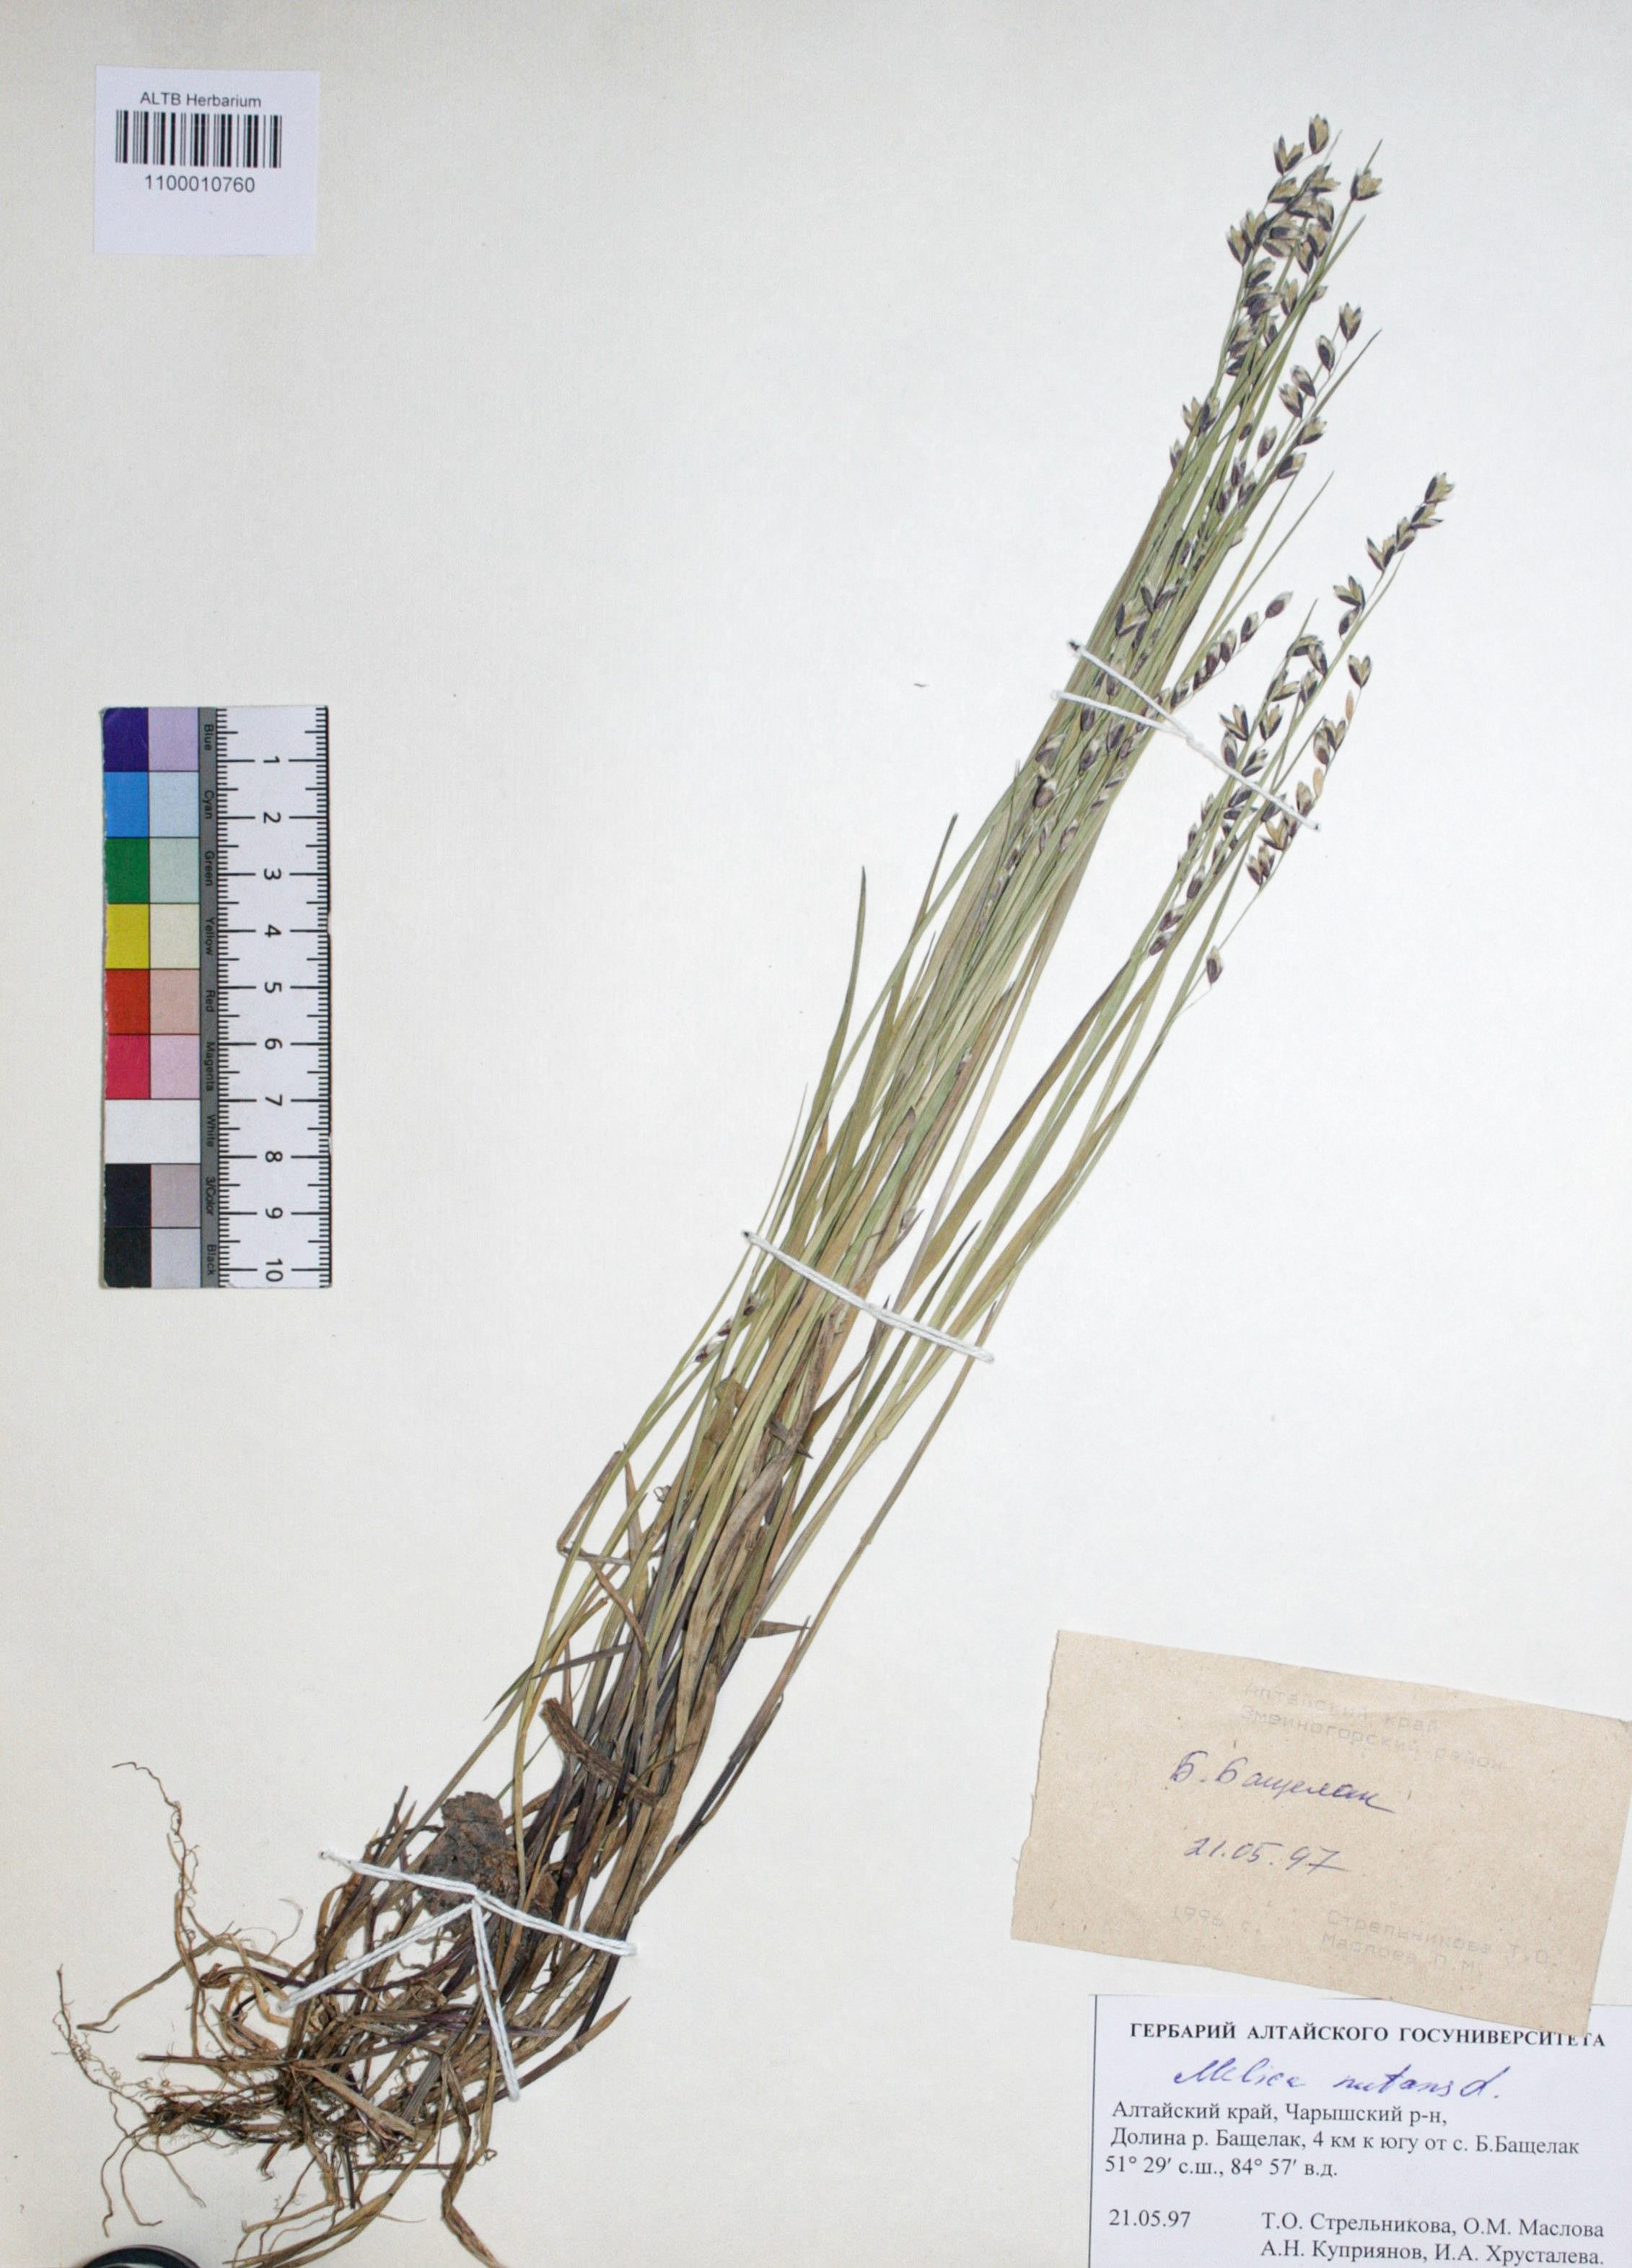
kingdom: Plantae
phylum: Tracheophyta
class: Liliopsida
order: Poales
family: Poaceae
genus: Melica
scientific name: Melica nutans
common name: Mountain melick
